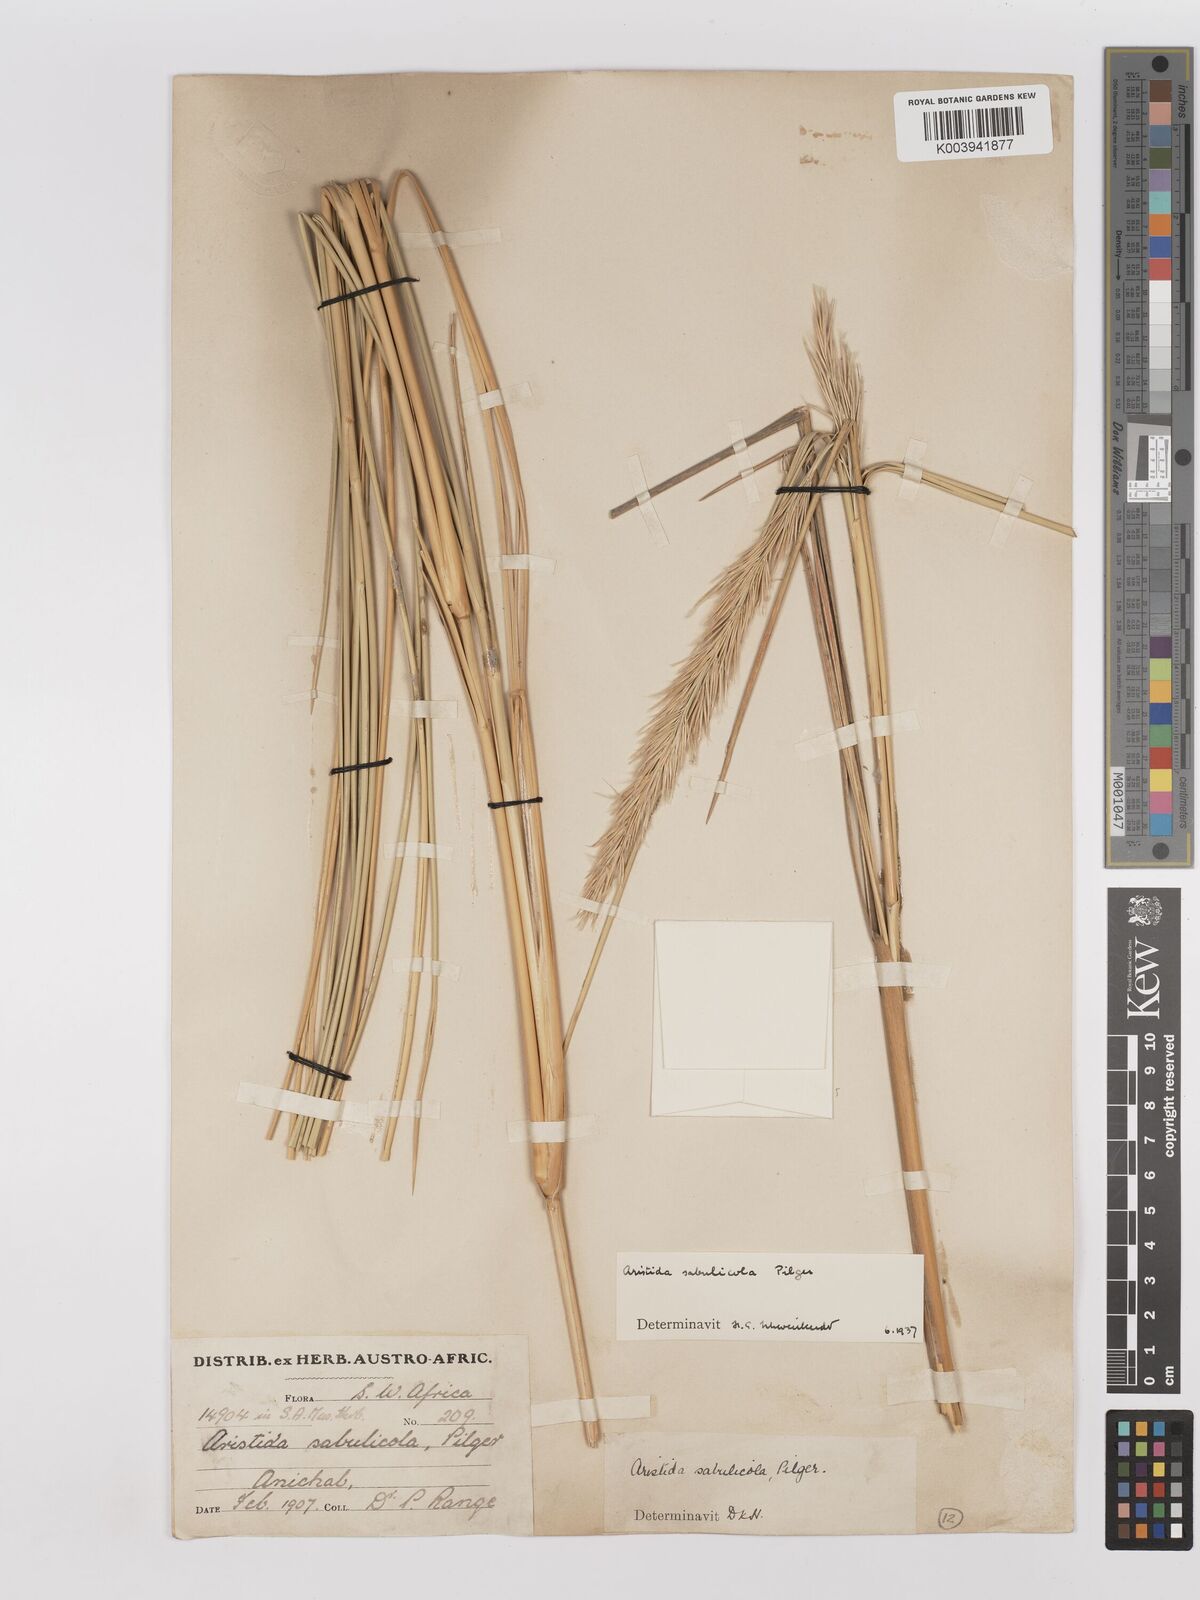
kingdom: Plantae
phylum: Tracheophyta
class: Liliopsida
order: Poales
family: Poaceae
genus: Stipagrostis
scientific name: Stipagrostis sabulicola
